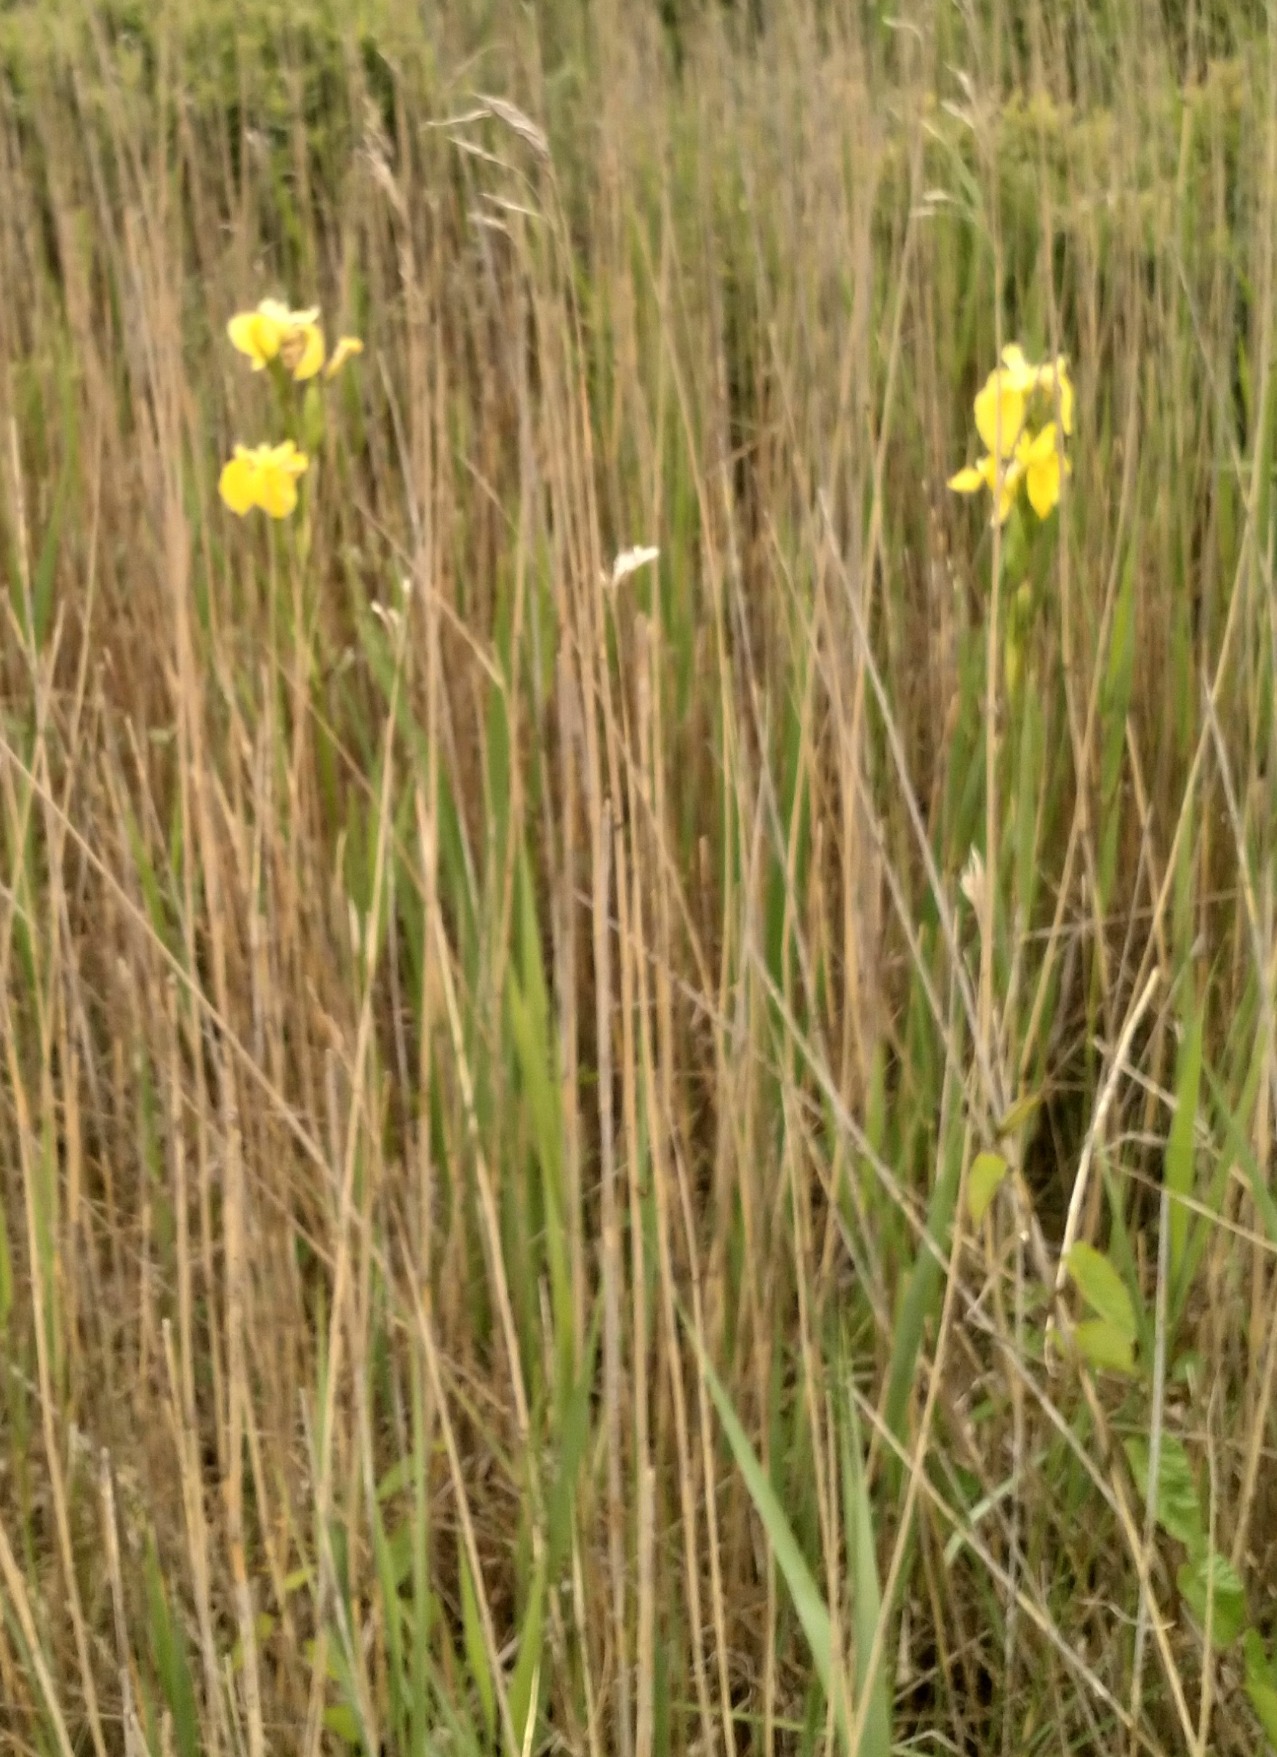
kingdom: Plantae
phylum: Tracheophyta
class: Liliopsida
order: Asparagales
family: Iridaceae
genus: Iris
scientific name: Iris pseudacorus
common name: Gul iris
